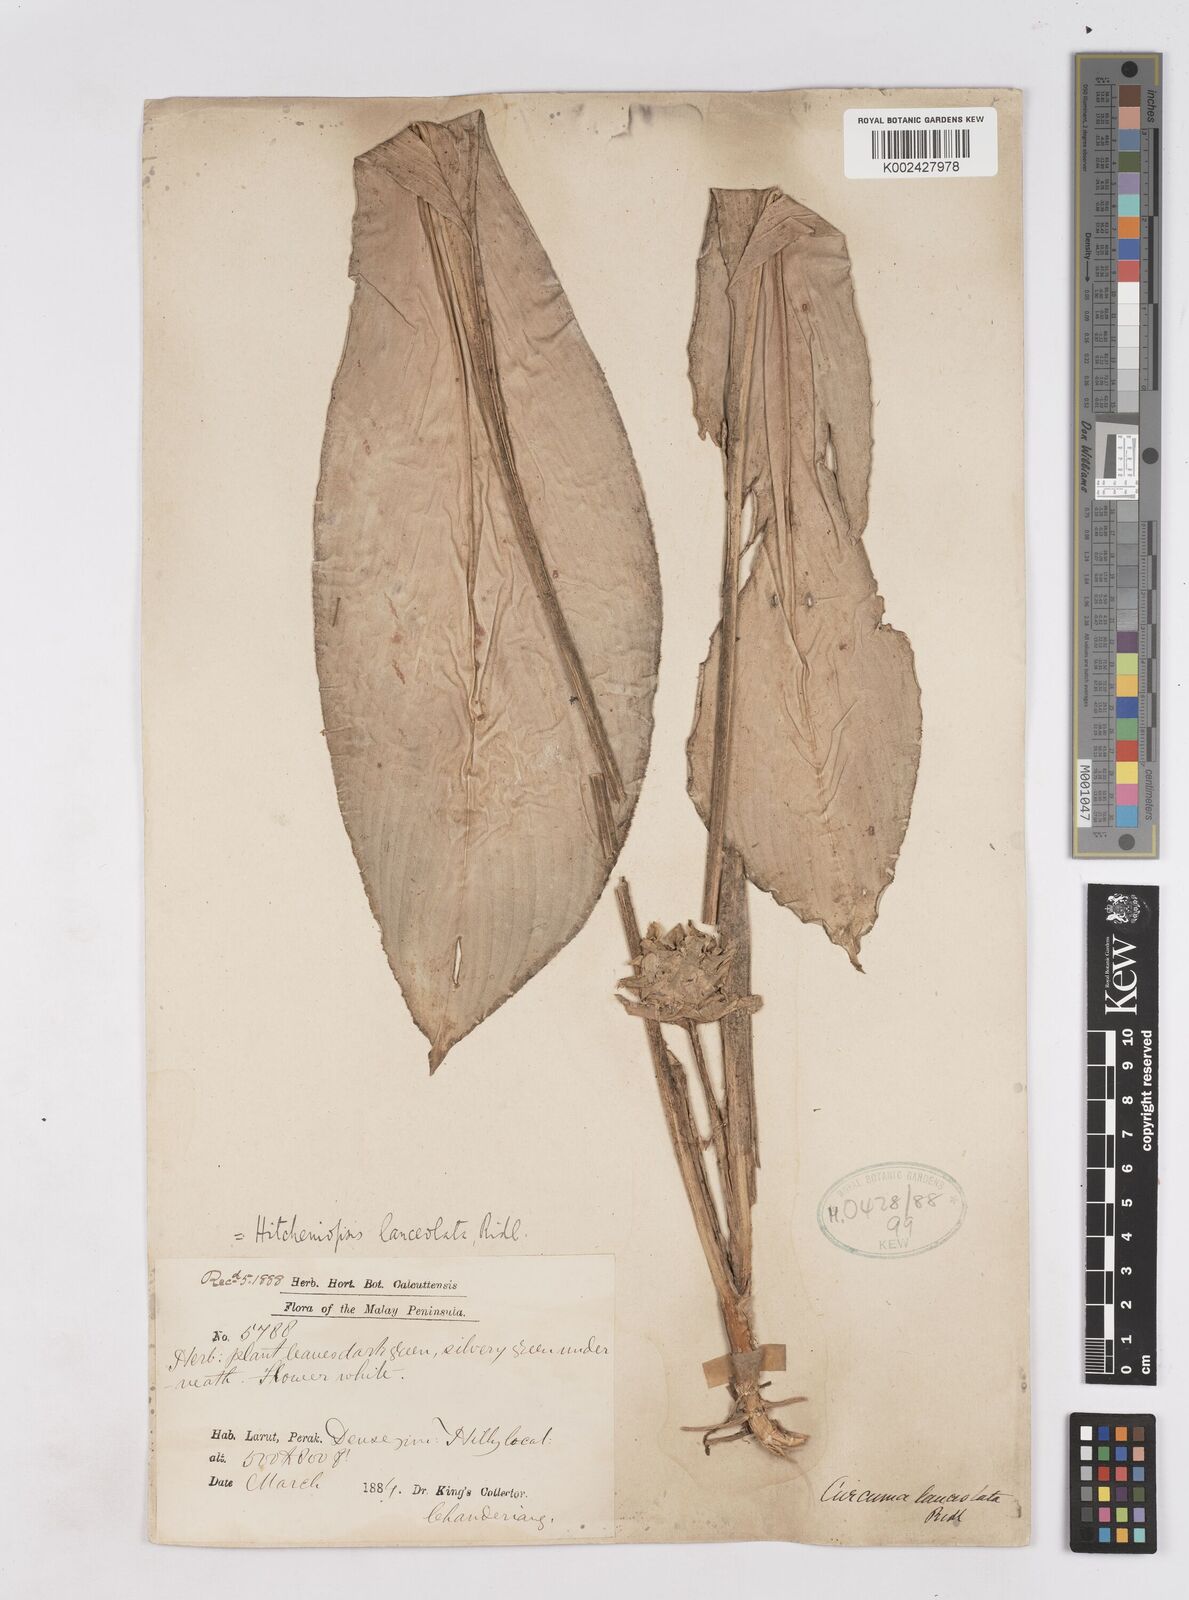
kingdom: Plantae
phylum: Tracheophyta
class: Liliopsida
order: Zingiberales
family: Zingiberaceae
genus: Scaphochlamys
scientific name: Scaphochlamys perakensis
